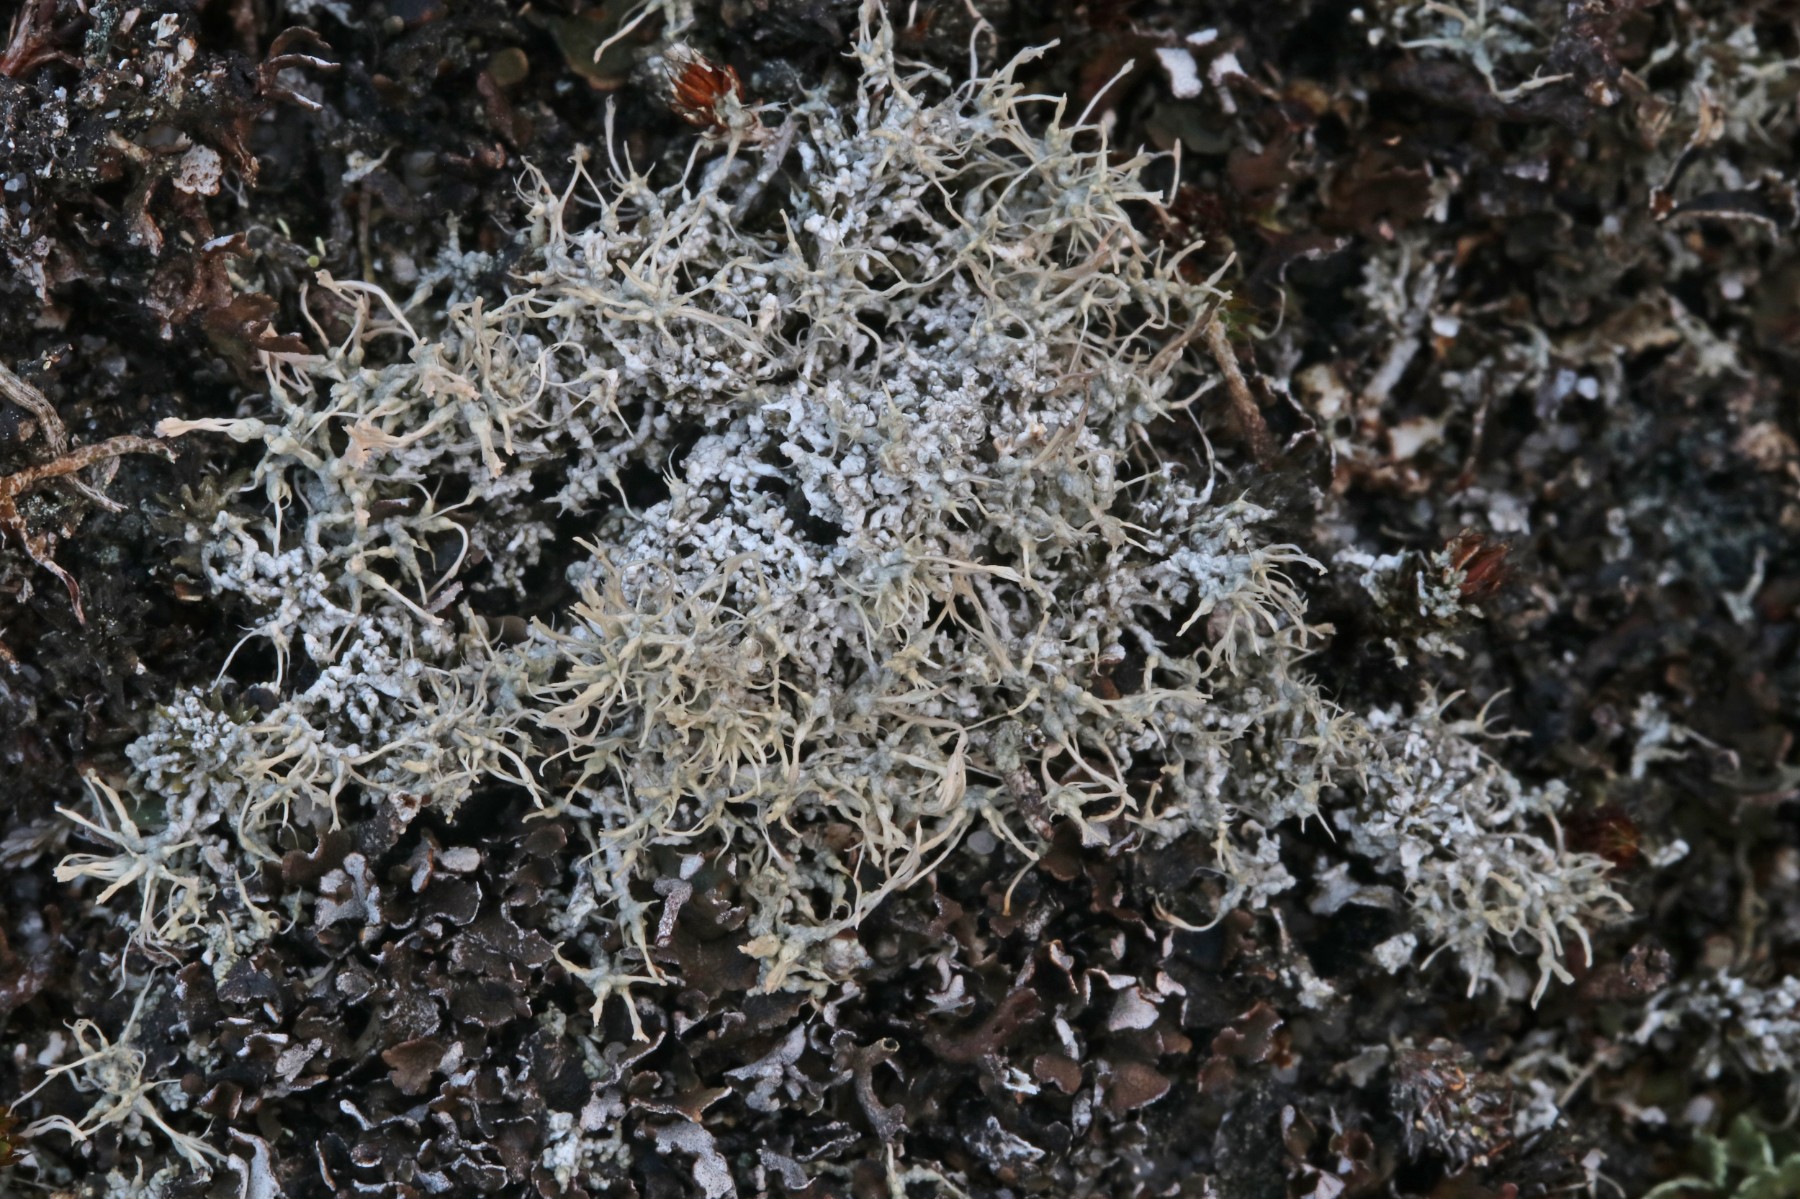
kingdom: Fungi
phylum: Ascomycota
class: Lecanoromycetes
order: Pertusariales
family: Ochrolechiaceae
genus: Ochrolechia
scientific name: Ochrolechia frigida
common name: fjeld-blegskivelav
